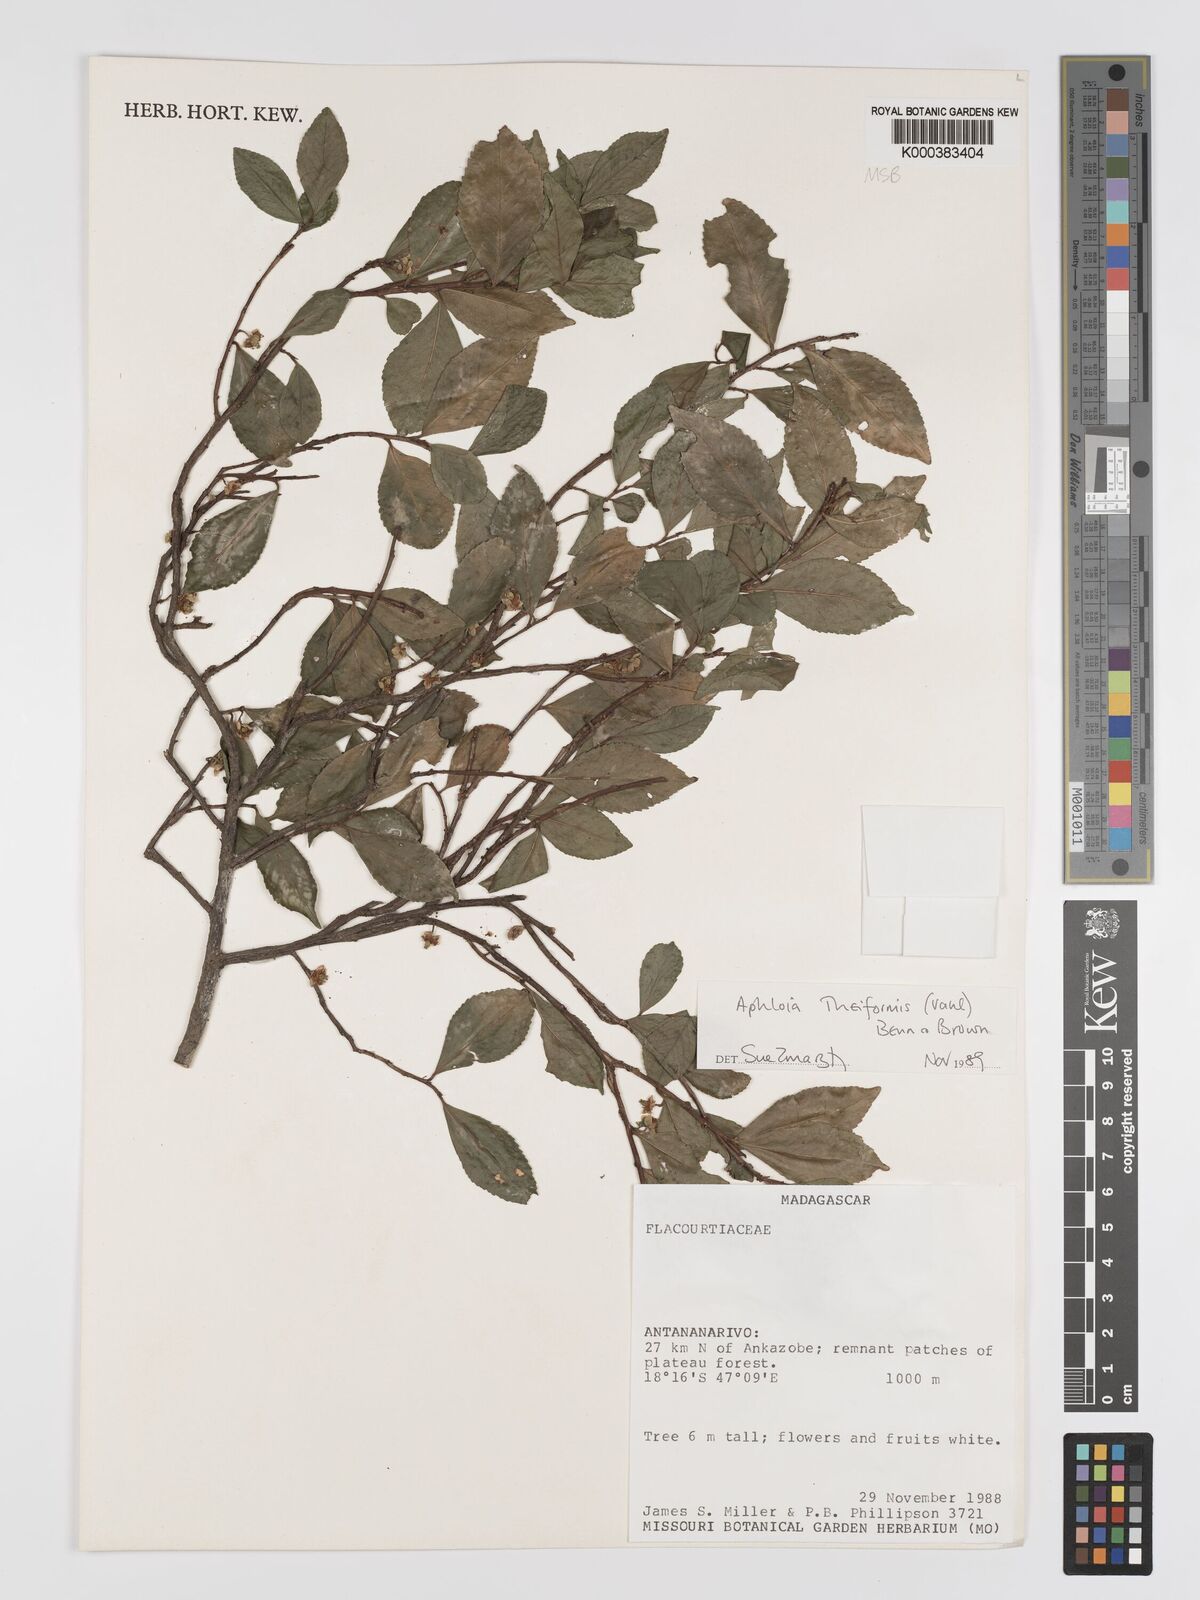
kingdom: Plantae
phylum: Tracheophyta
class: Magnoliopsida
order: Crossosomatales
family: Aphloiaceae
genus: Aphloia
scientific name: Aphloia theiformis
